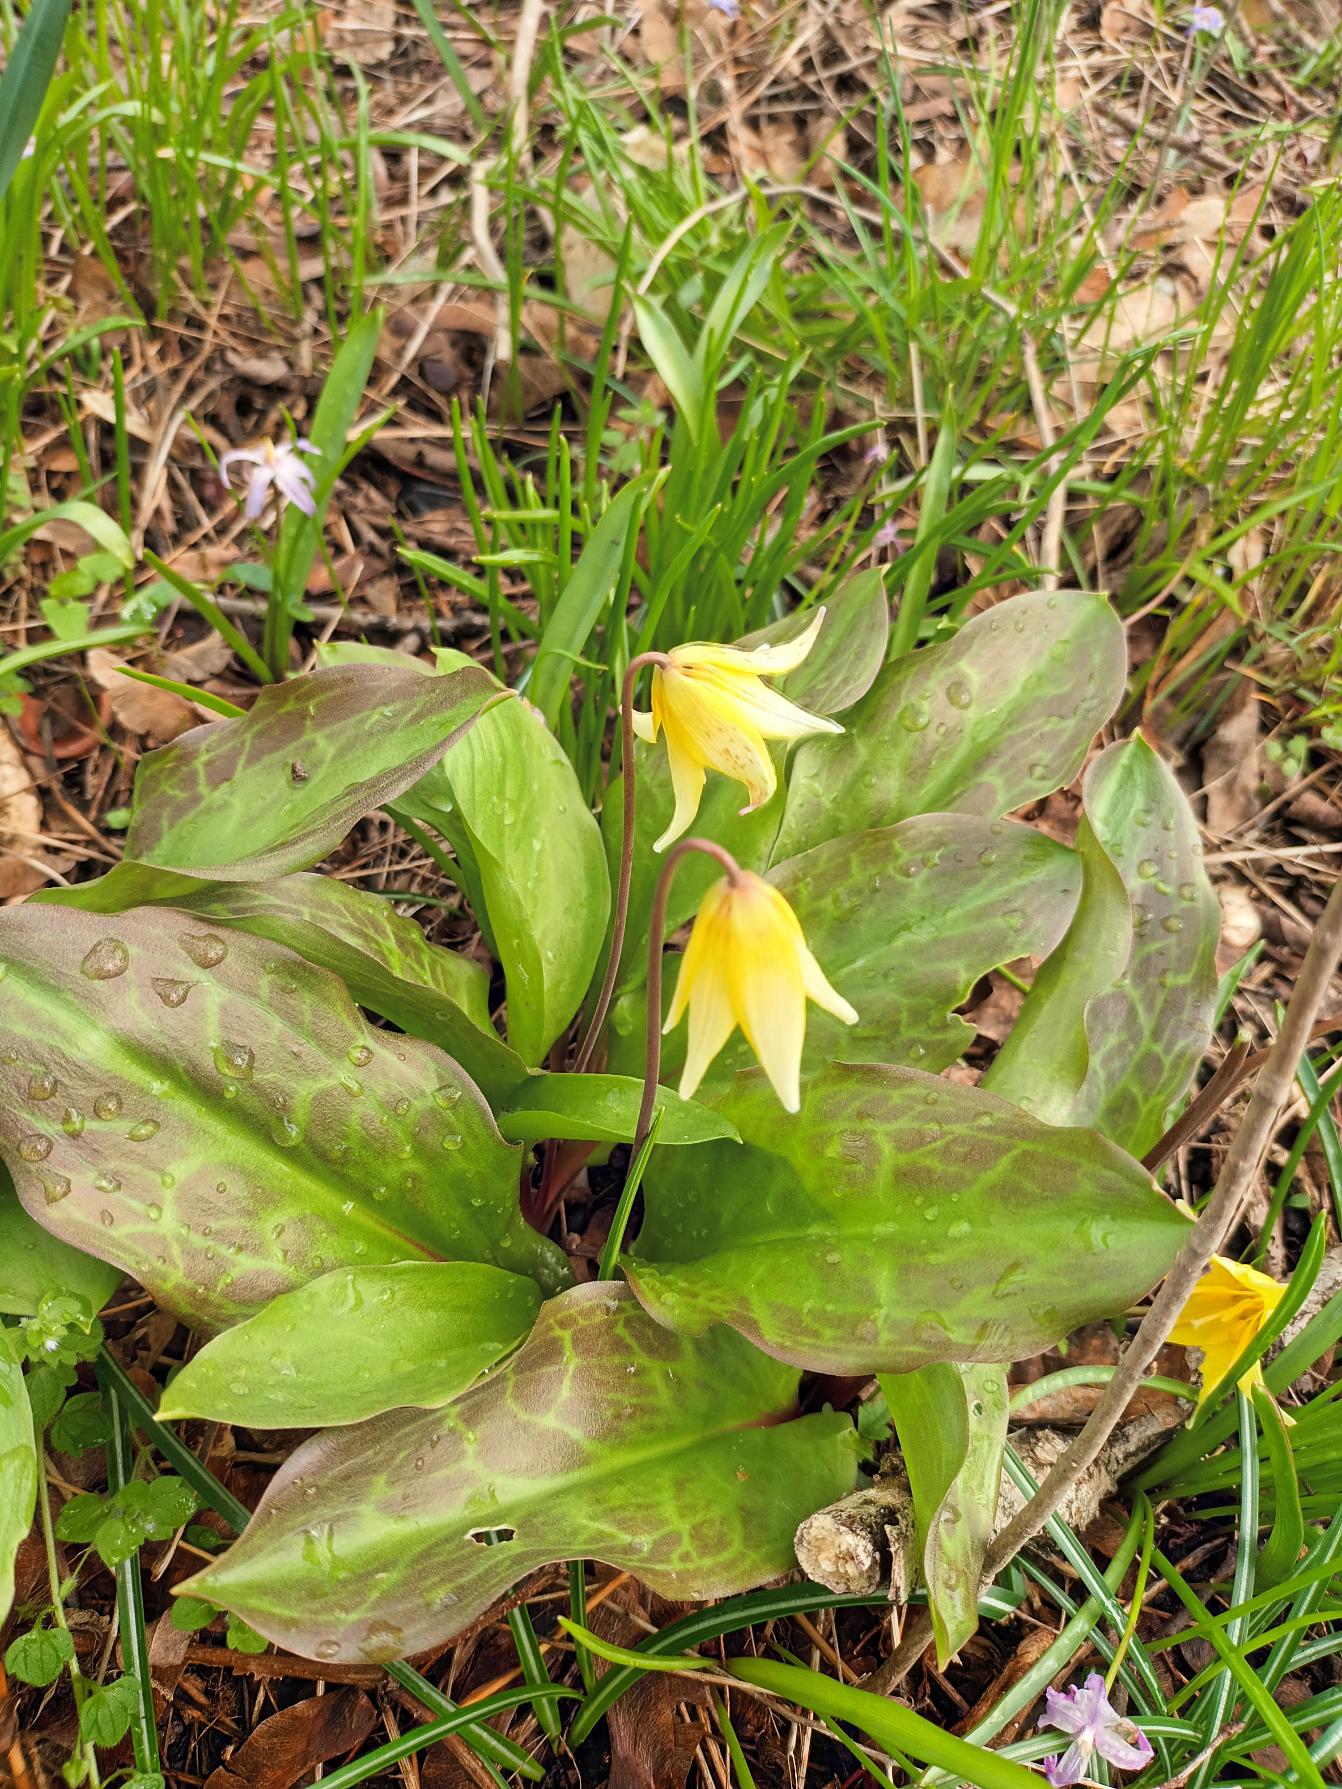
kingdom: Plantae
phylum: Tracheophyta
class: Liliopsida
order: Liliales
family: Liliaceae
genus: Erythronium
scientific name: Erythronium
